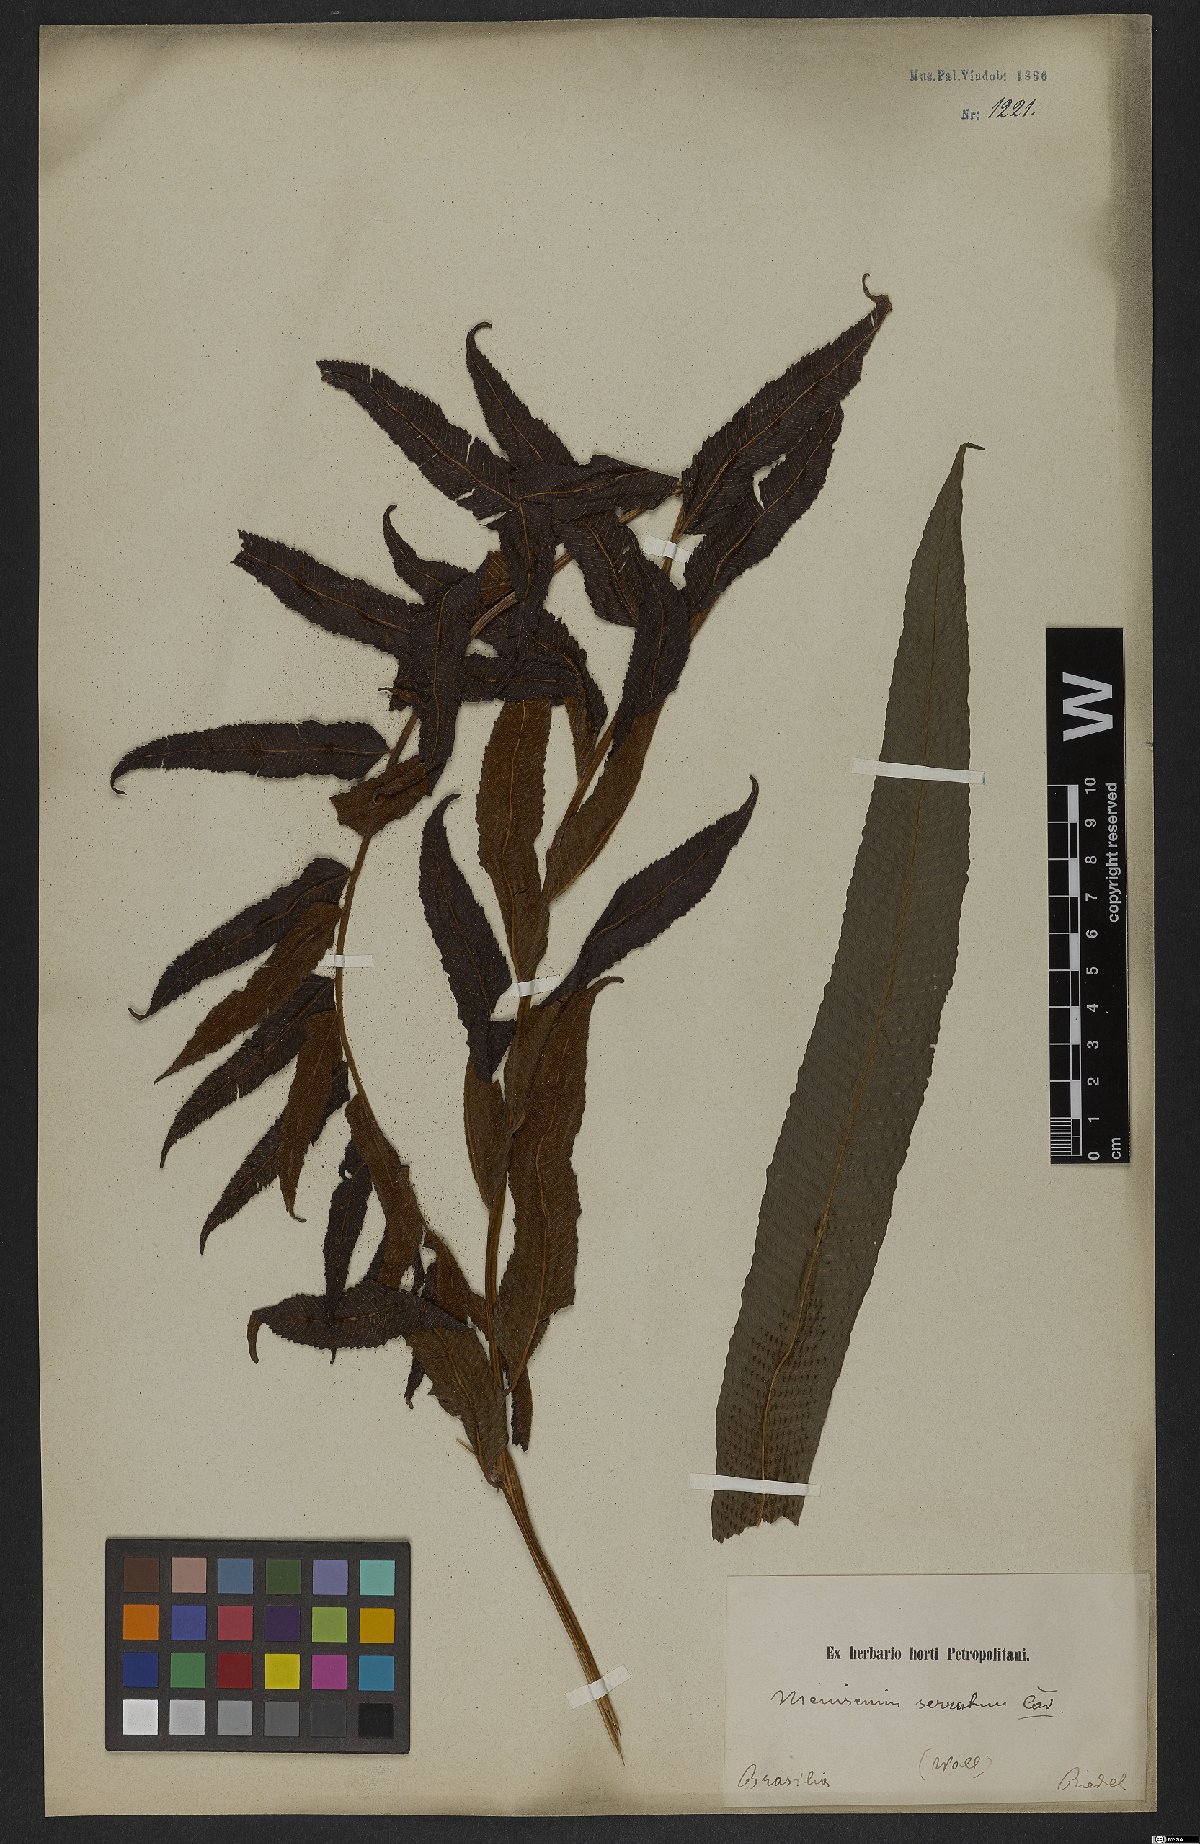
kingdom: Plantae
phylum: Tracheophyta
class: Polypodiopsida
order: Polypodiales
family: Thelypteridaceae
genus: Meniscium
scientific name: Meniscium serratum
